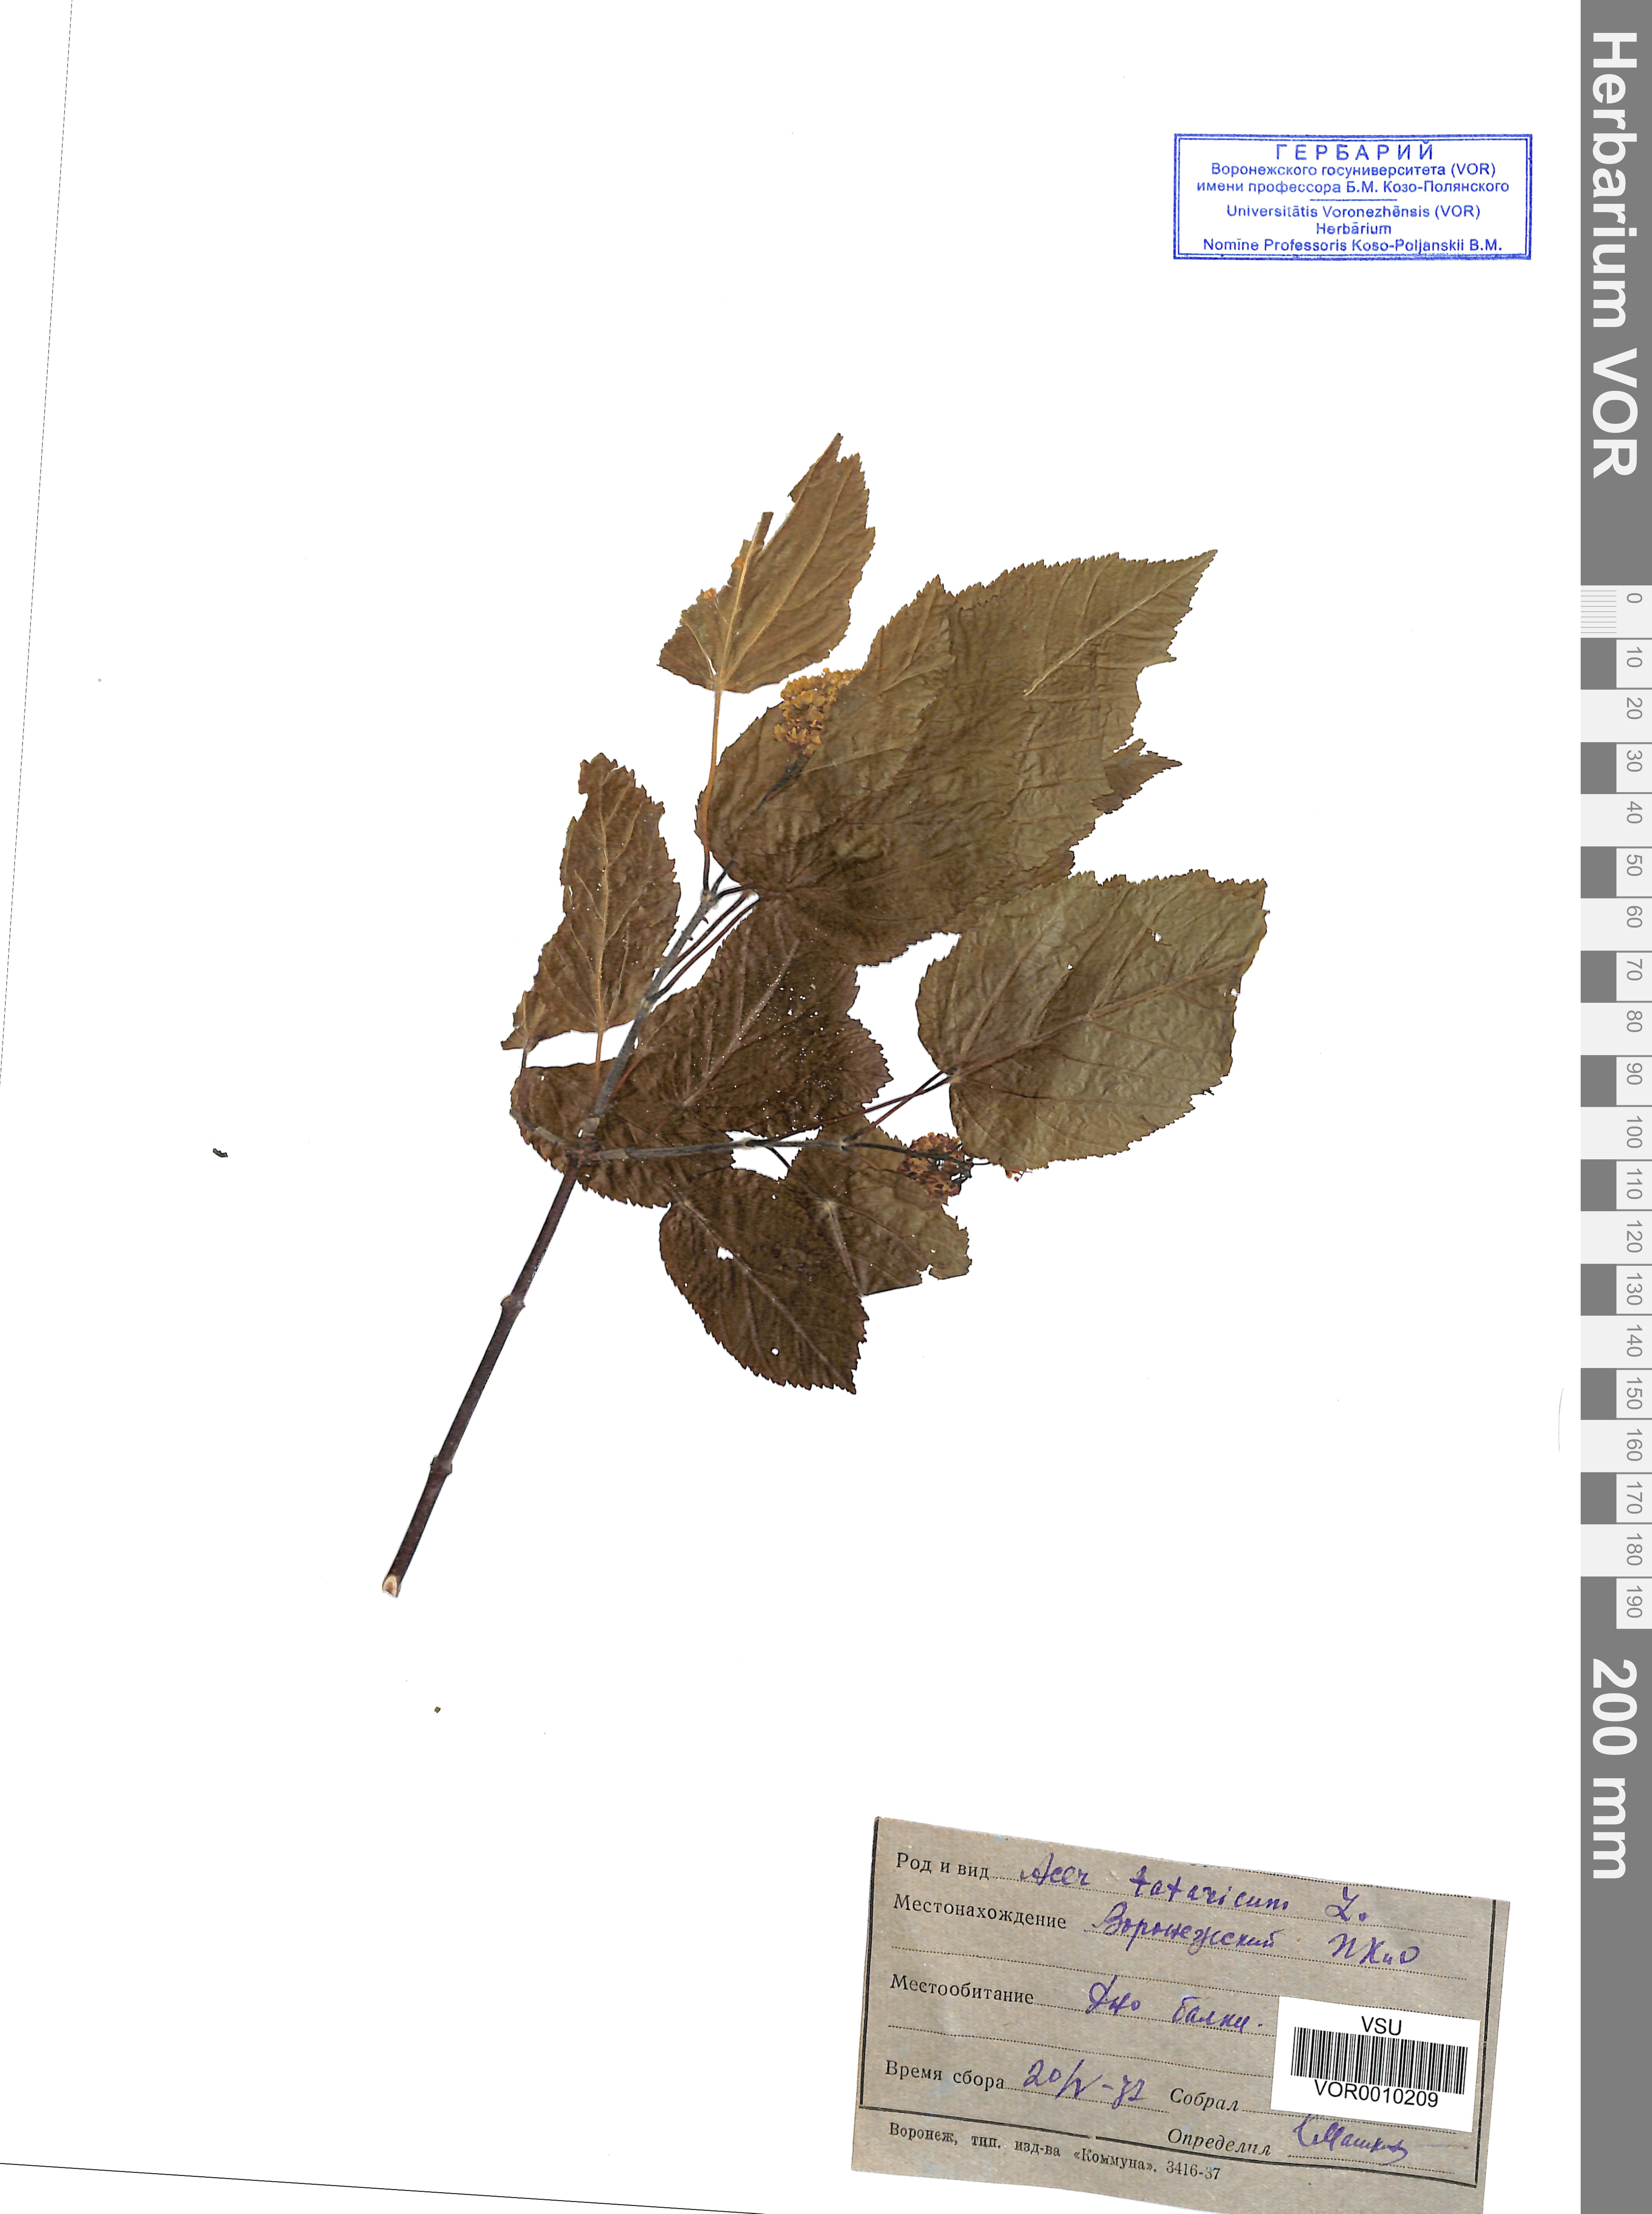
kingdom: Plantae
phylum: Tracheophyta
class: Magnoliopsida
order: Sapindales
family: Sapindaceae
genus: Acer
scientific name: Acer tataricum
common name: Tartar maple
